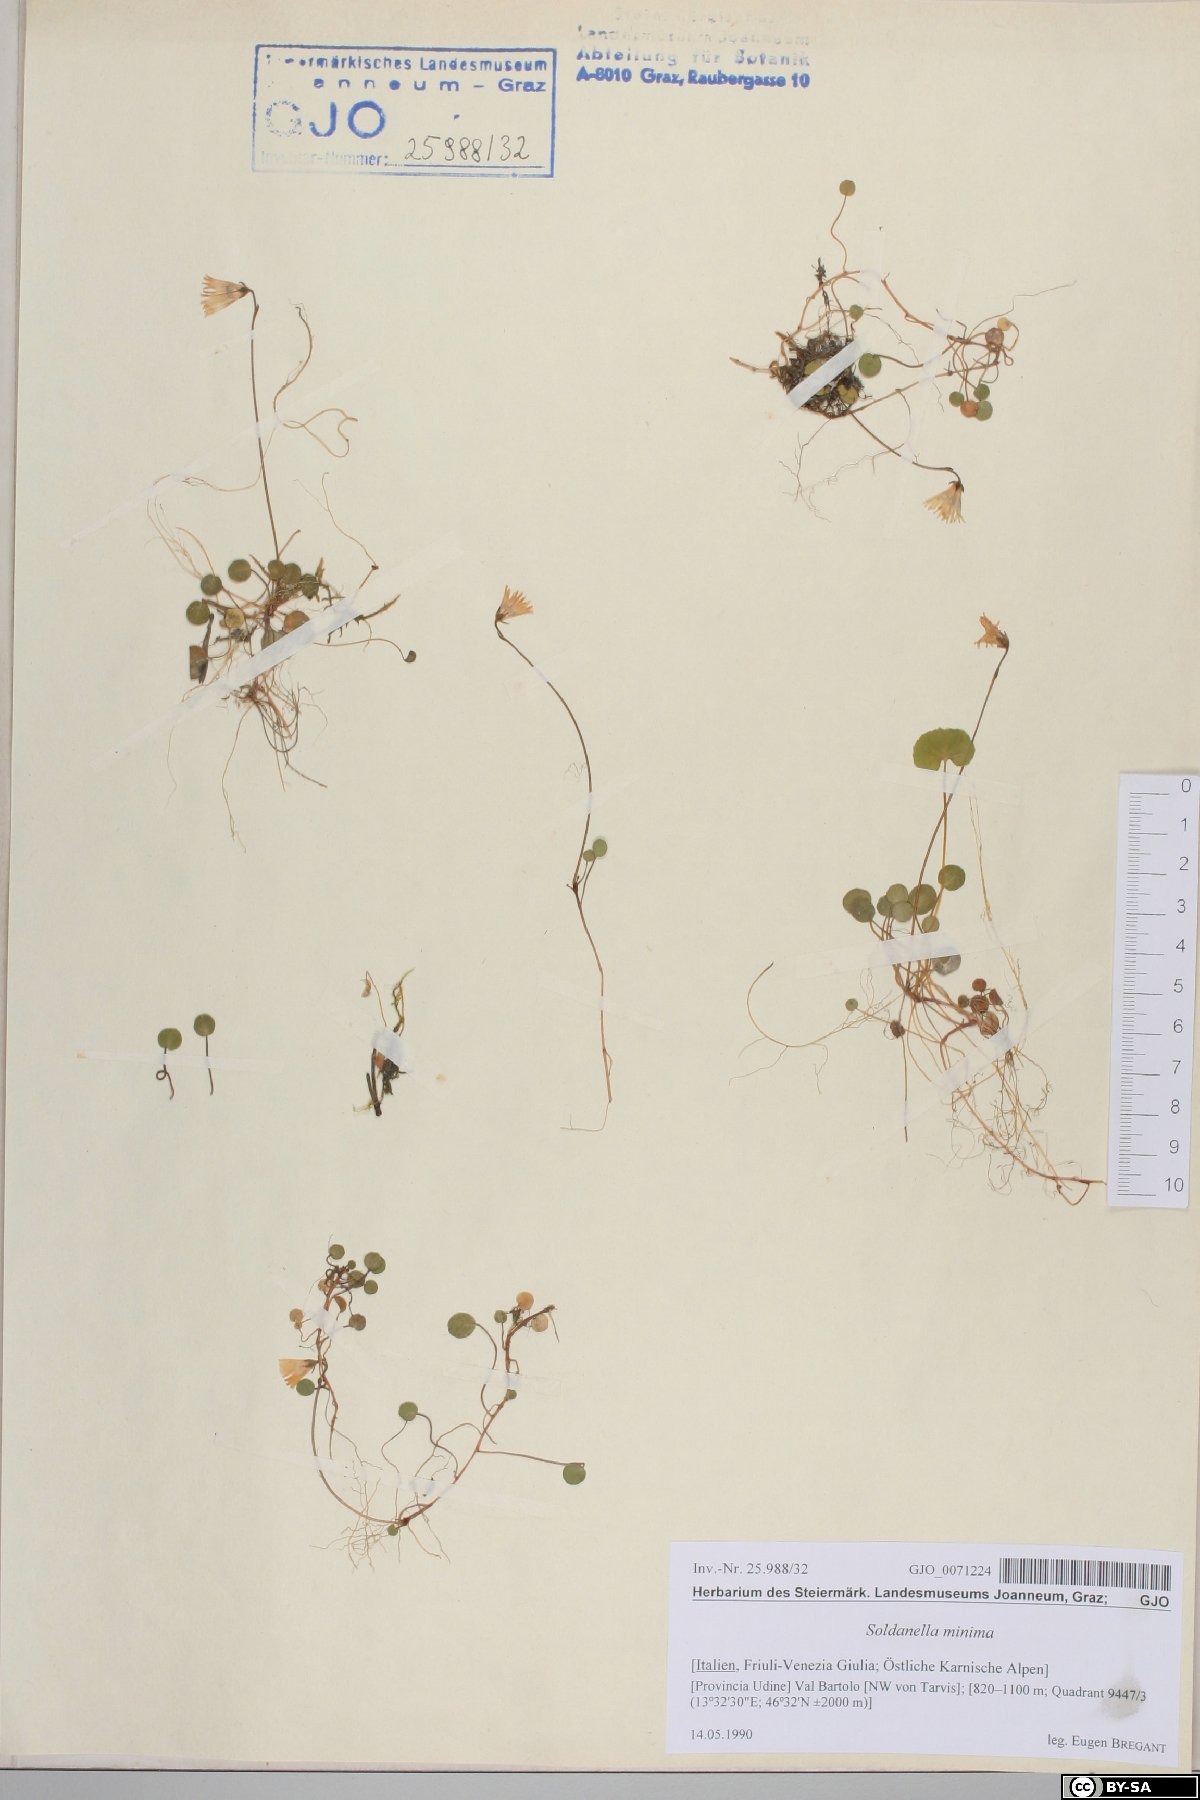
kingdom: Plantae
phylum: Tracheophyta
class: Magnoliopsida
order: Ericales
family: Primulaceae
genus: Soldanella
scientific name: Soldanella minima
